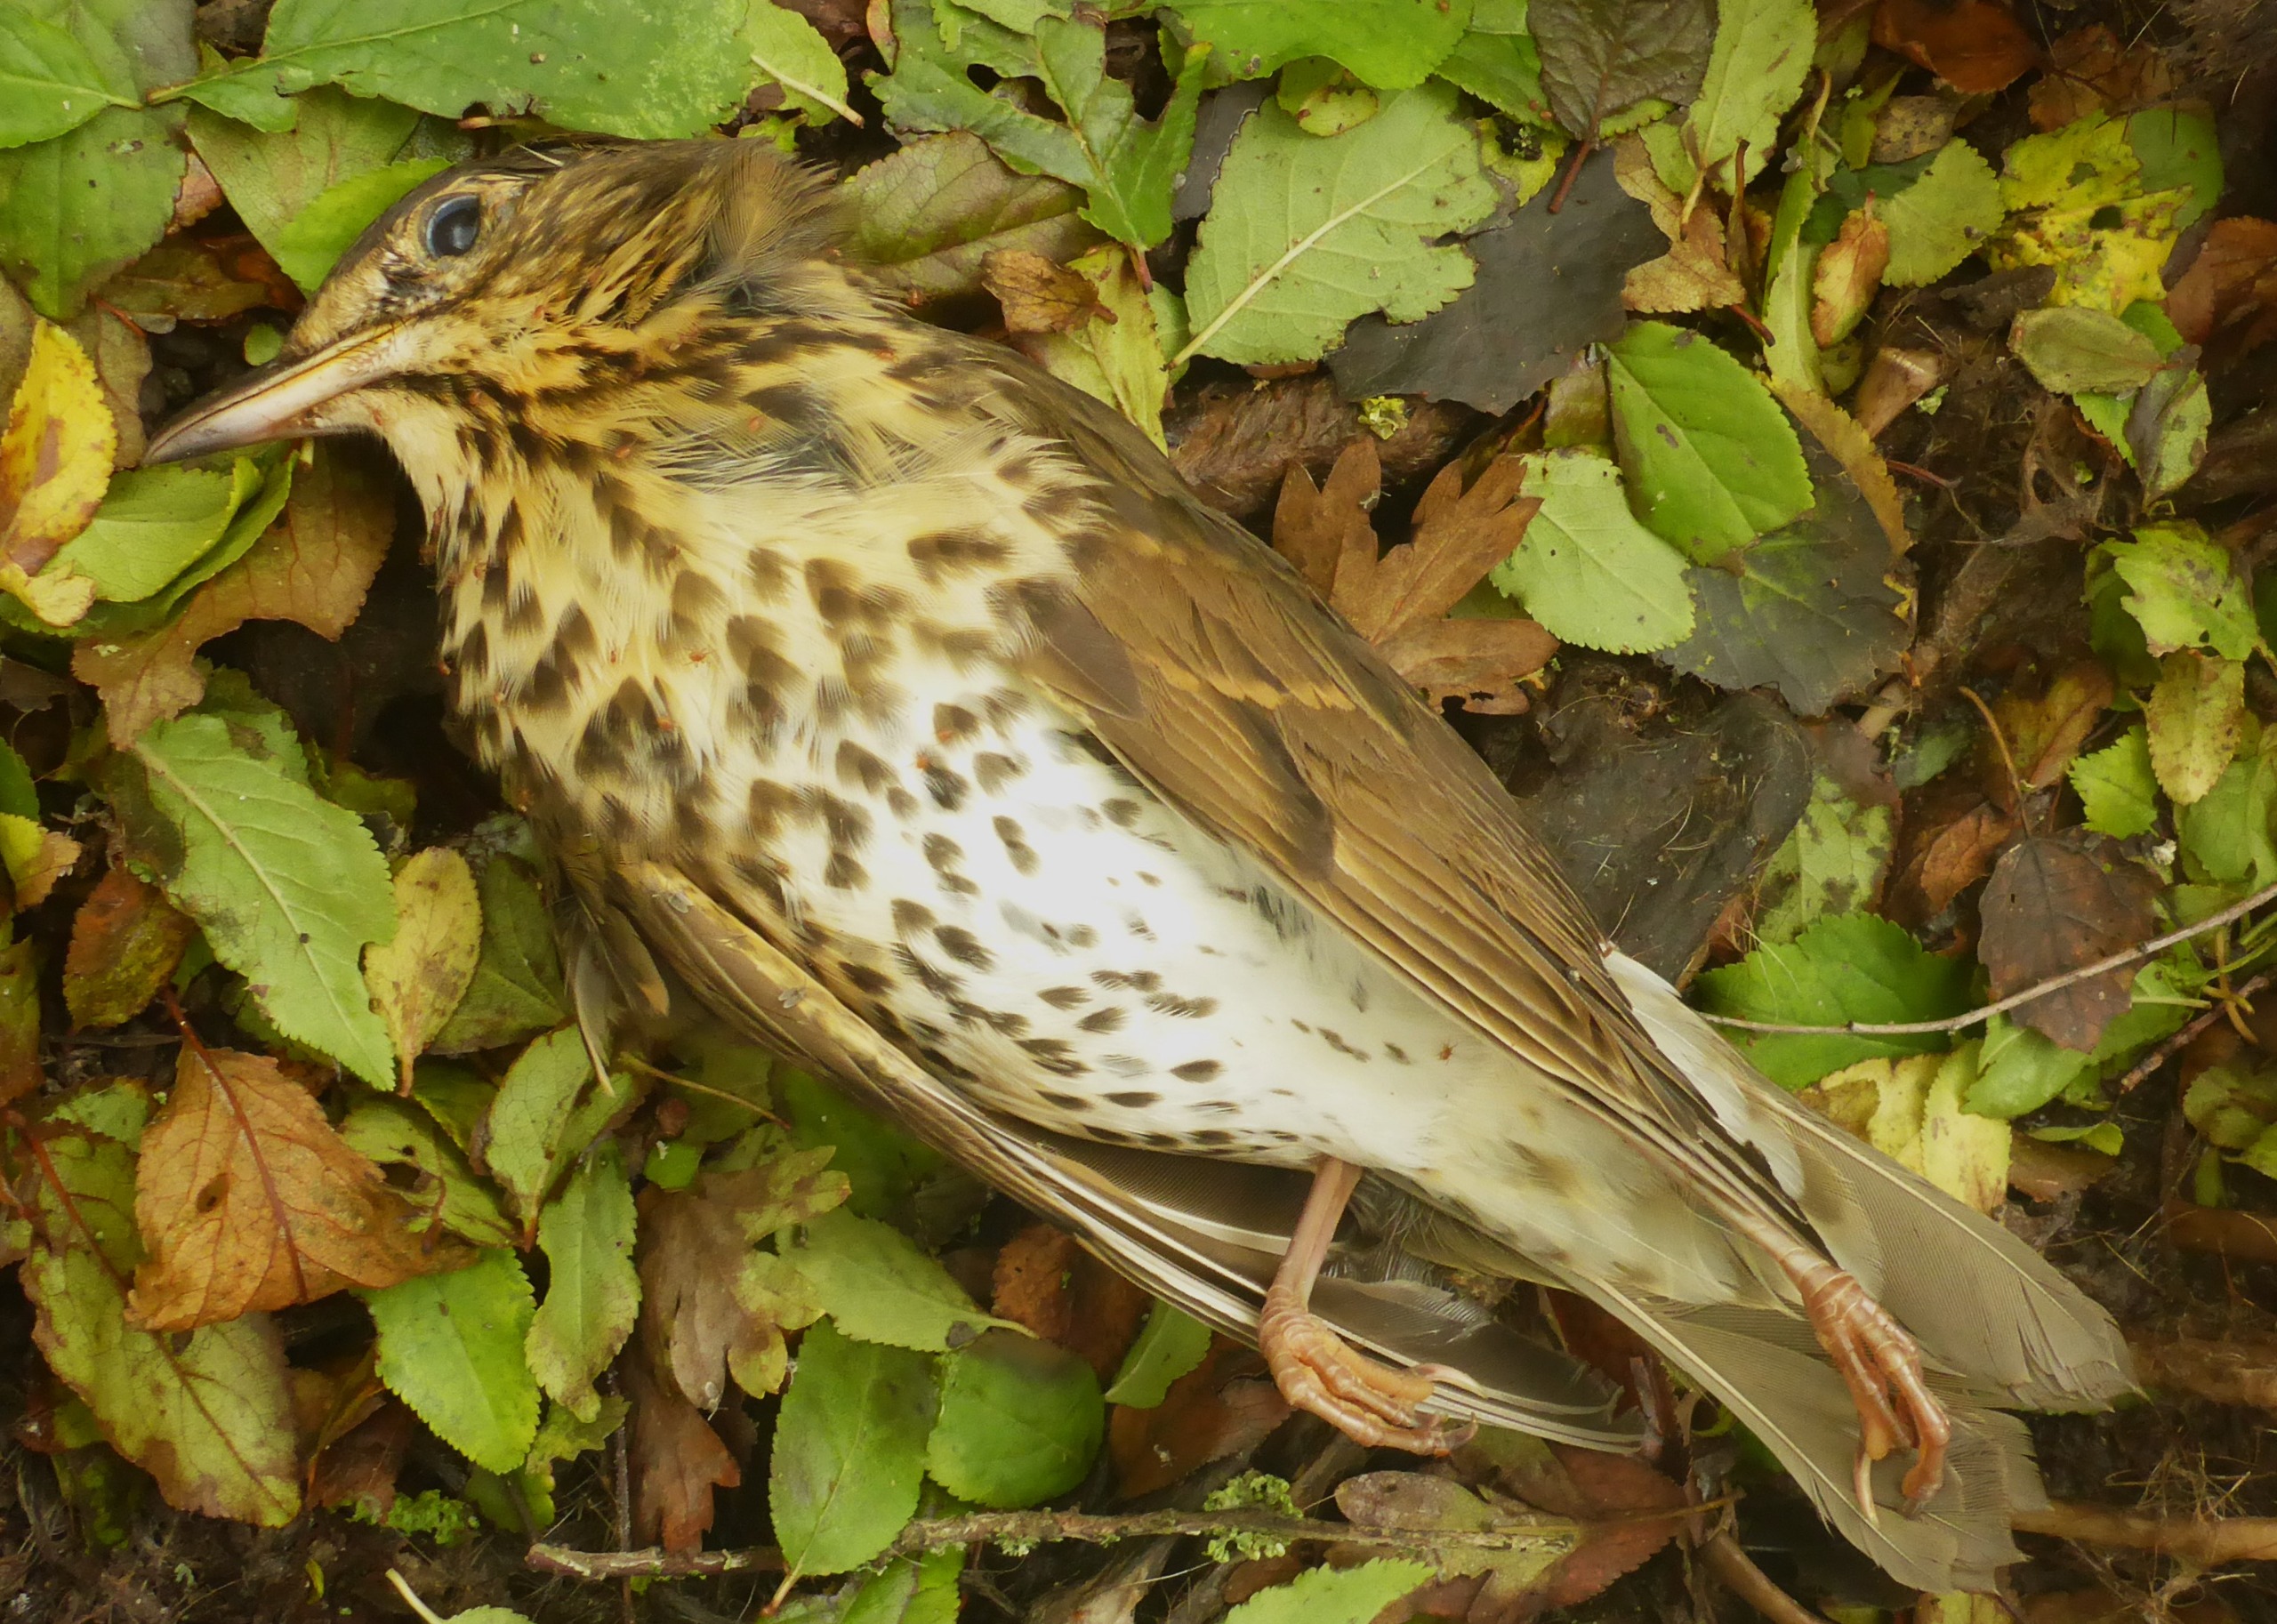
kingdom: Animalia
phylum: Chordata
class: Aves
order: Passeriformes
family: Turdidae
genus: Turdus
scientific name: Turdus philomelos
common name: Sangdrossel
